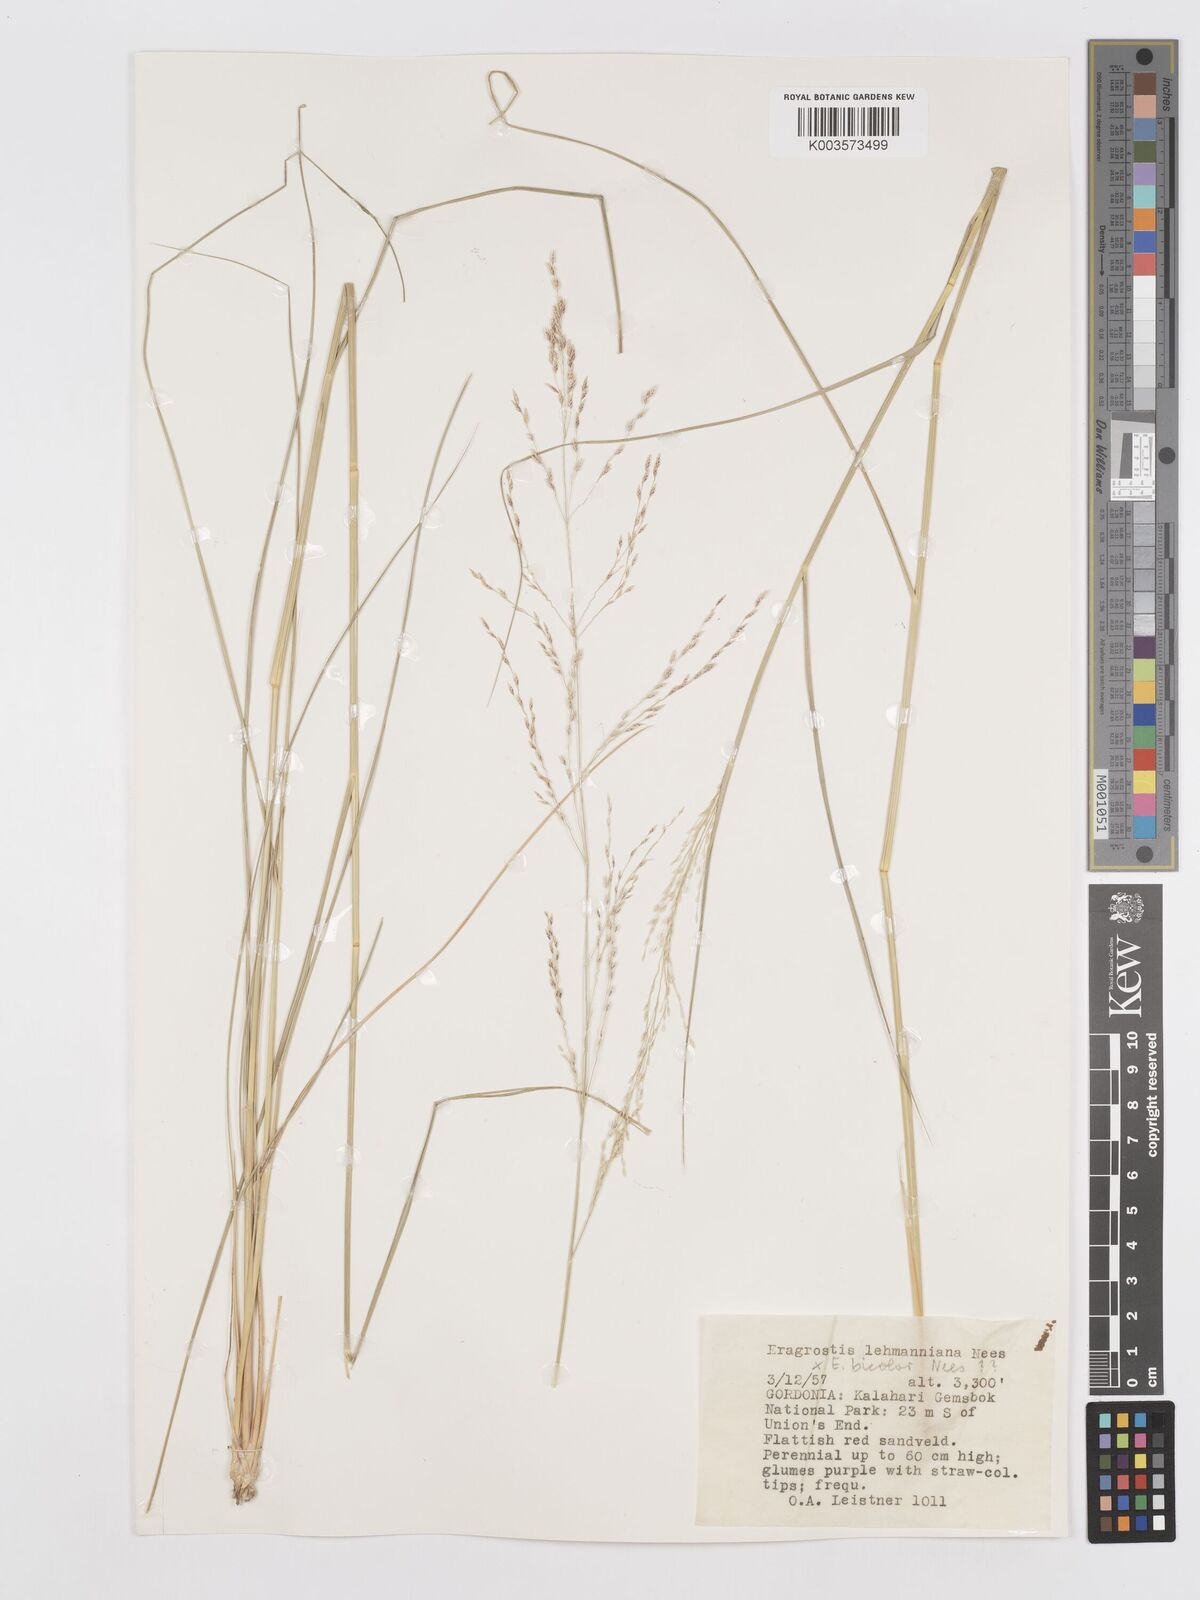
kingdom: Plantae
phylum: Tracheophyta
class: Liliopsida
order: Poales
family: Poaceae
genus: Eragrostis
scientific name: Eragrostis lehmanniana
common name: Lehmann lovegrass
